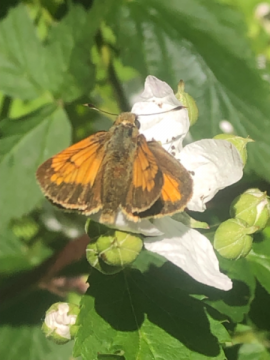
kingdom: Animalia
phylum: Arthropoda
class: Insecta
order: Lepidoptera
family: Hesperiidae
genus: Lon
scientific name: Lon hobomok
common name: Hobomok Skipper
